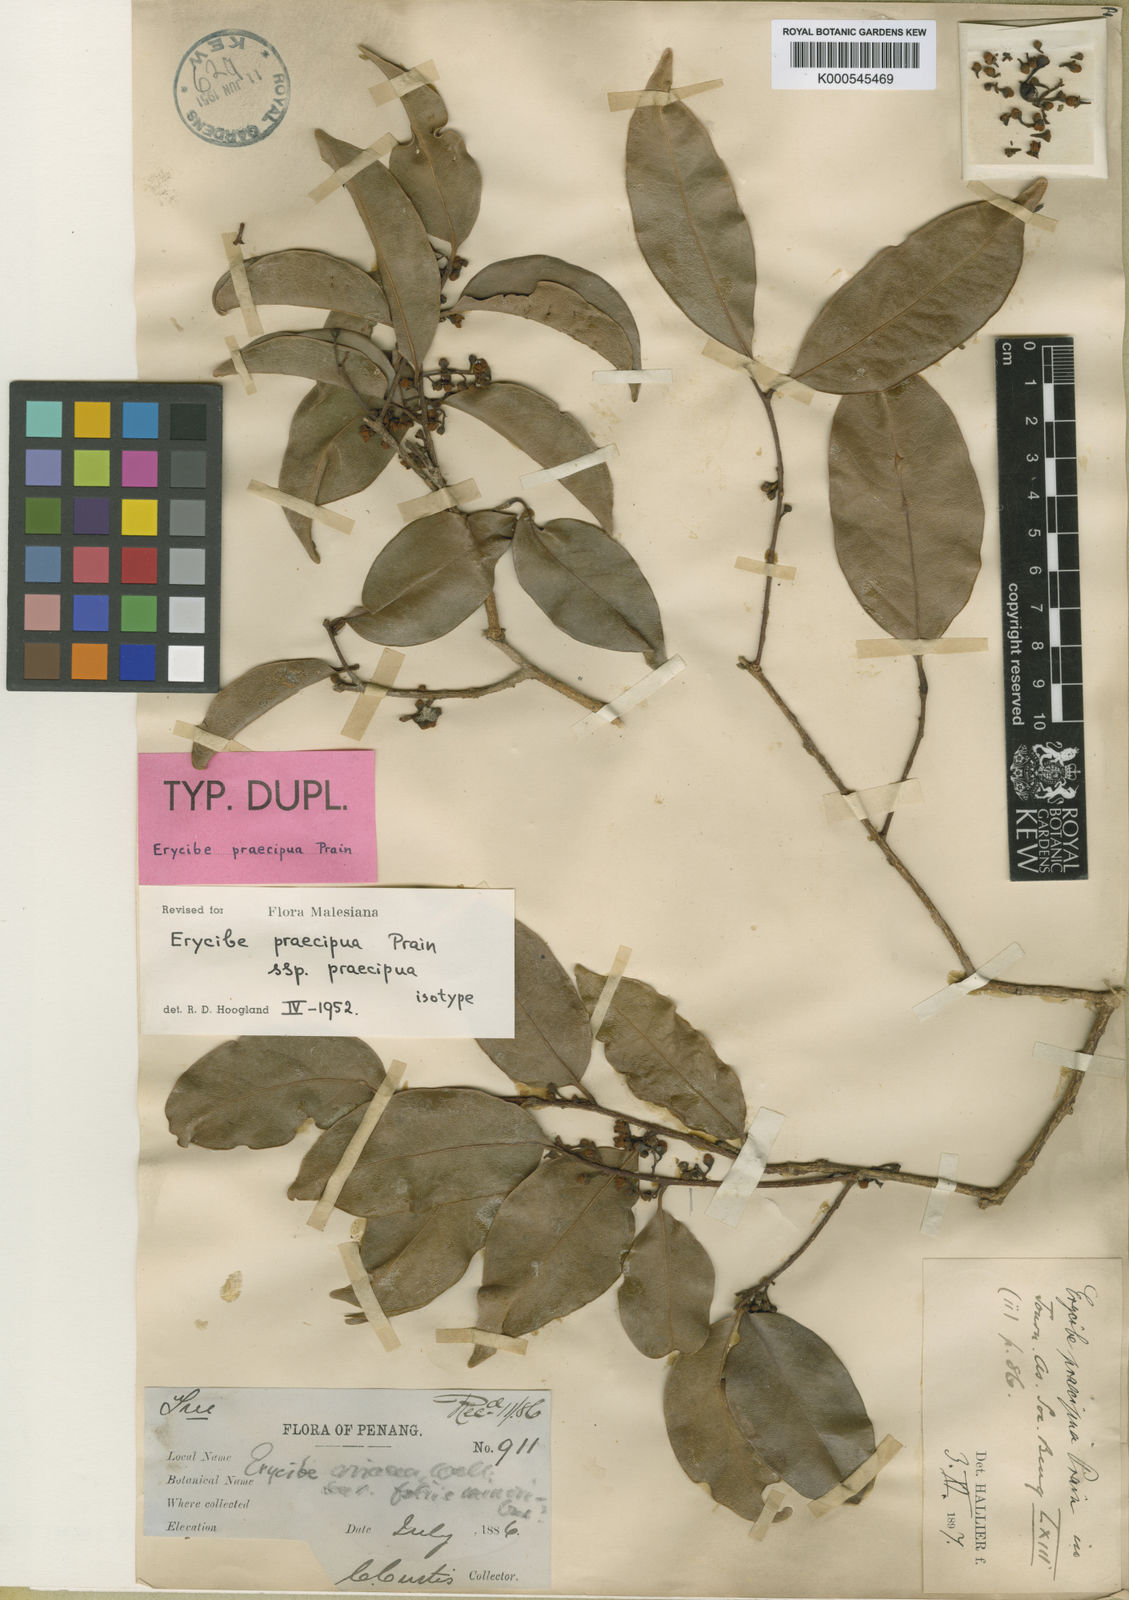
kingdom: Plantae
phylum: Tracheophyta
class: Magnoliopsida
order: Solanales
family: Convolvulaceae
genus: Erycibe
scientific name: Erycibe praecipua
